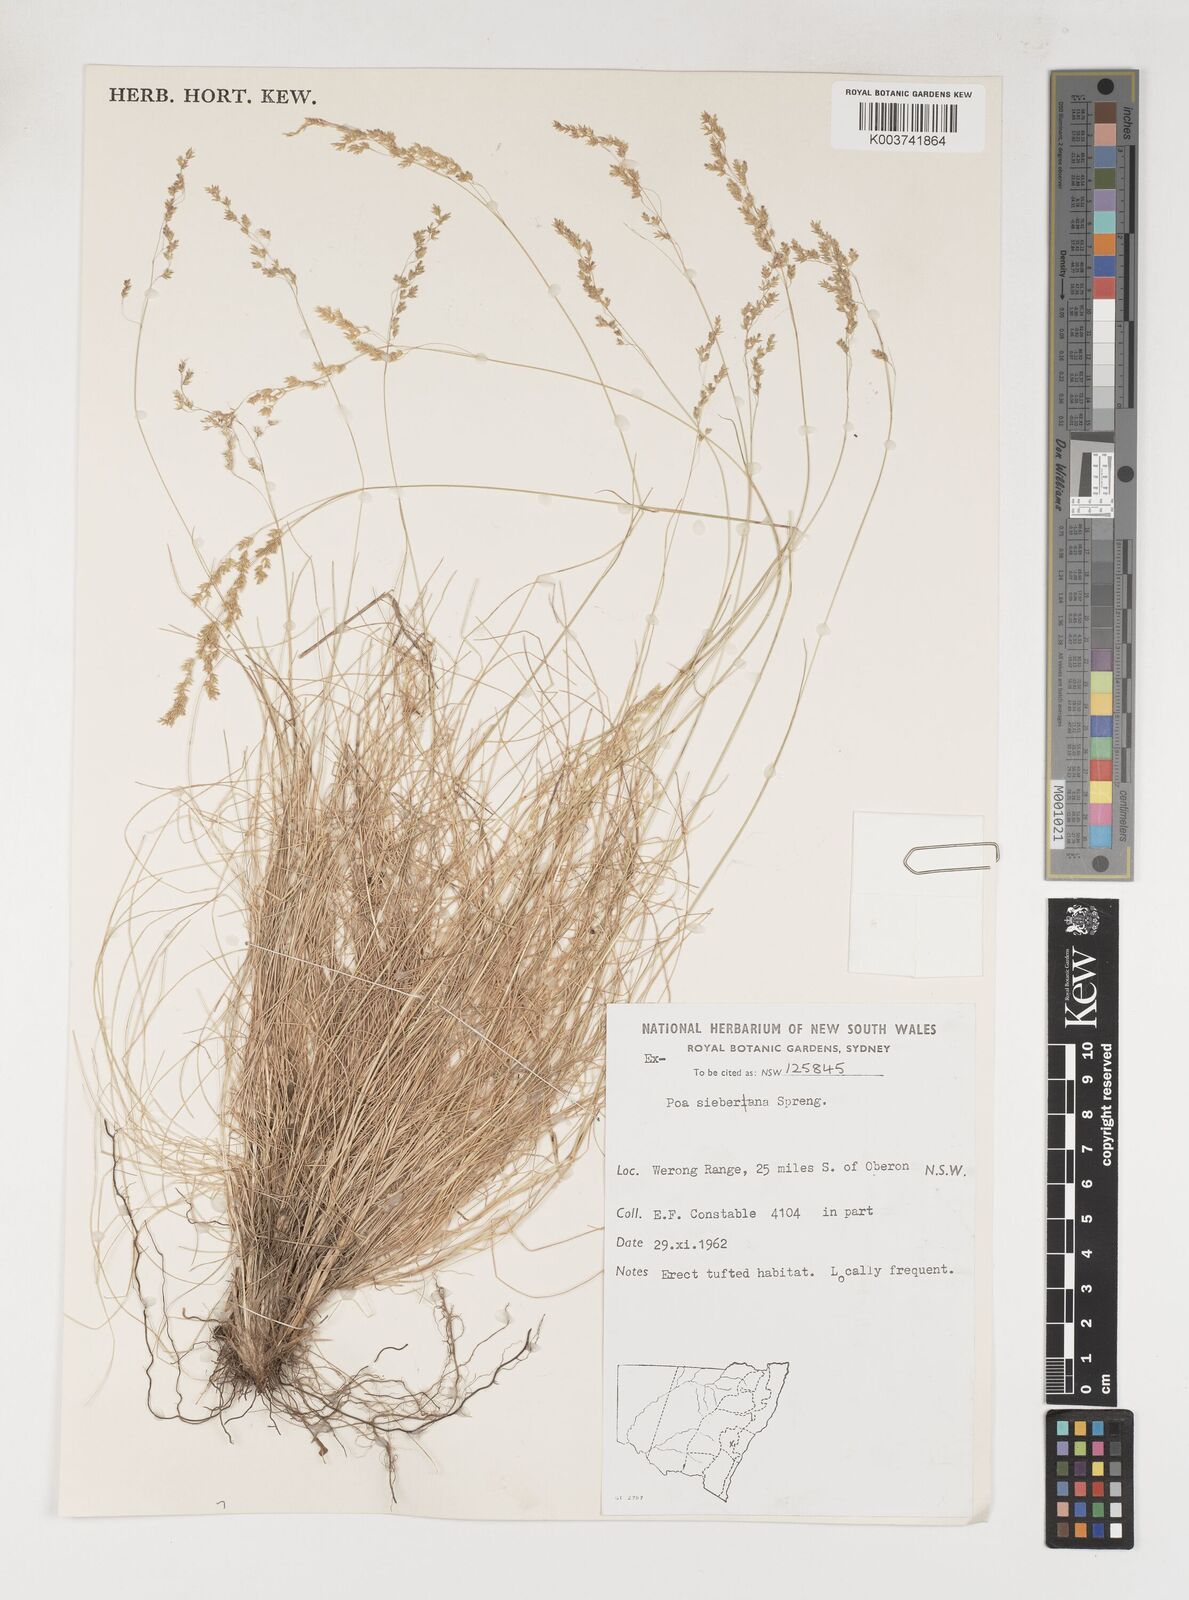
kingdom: Plantae
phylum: Tracheophyta
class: Liliopsida
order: Poales
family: Poaceae
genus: Poa
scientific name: Poa sieberiana
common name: Tussock poa
